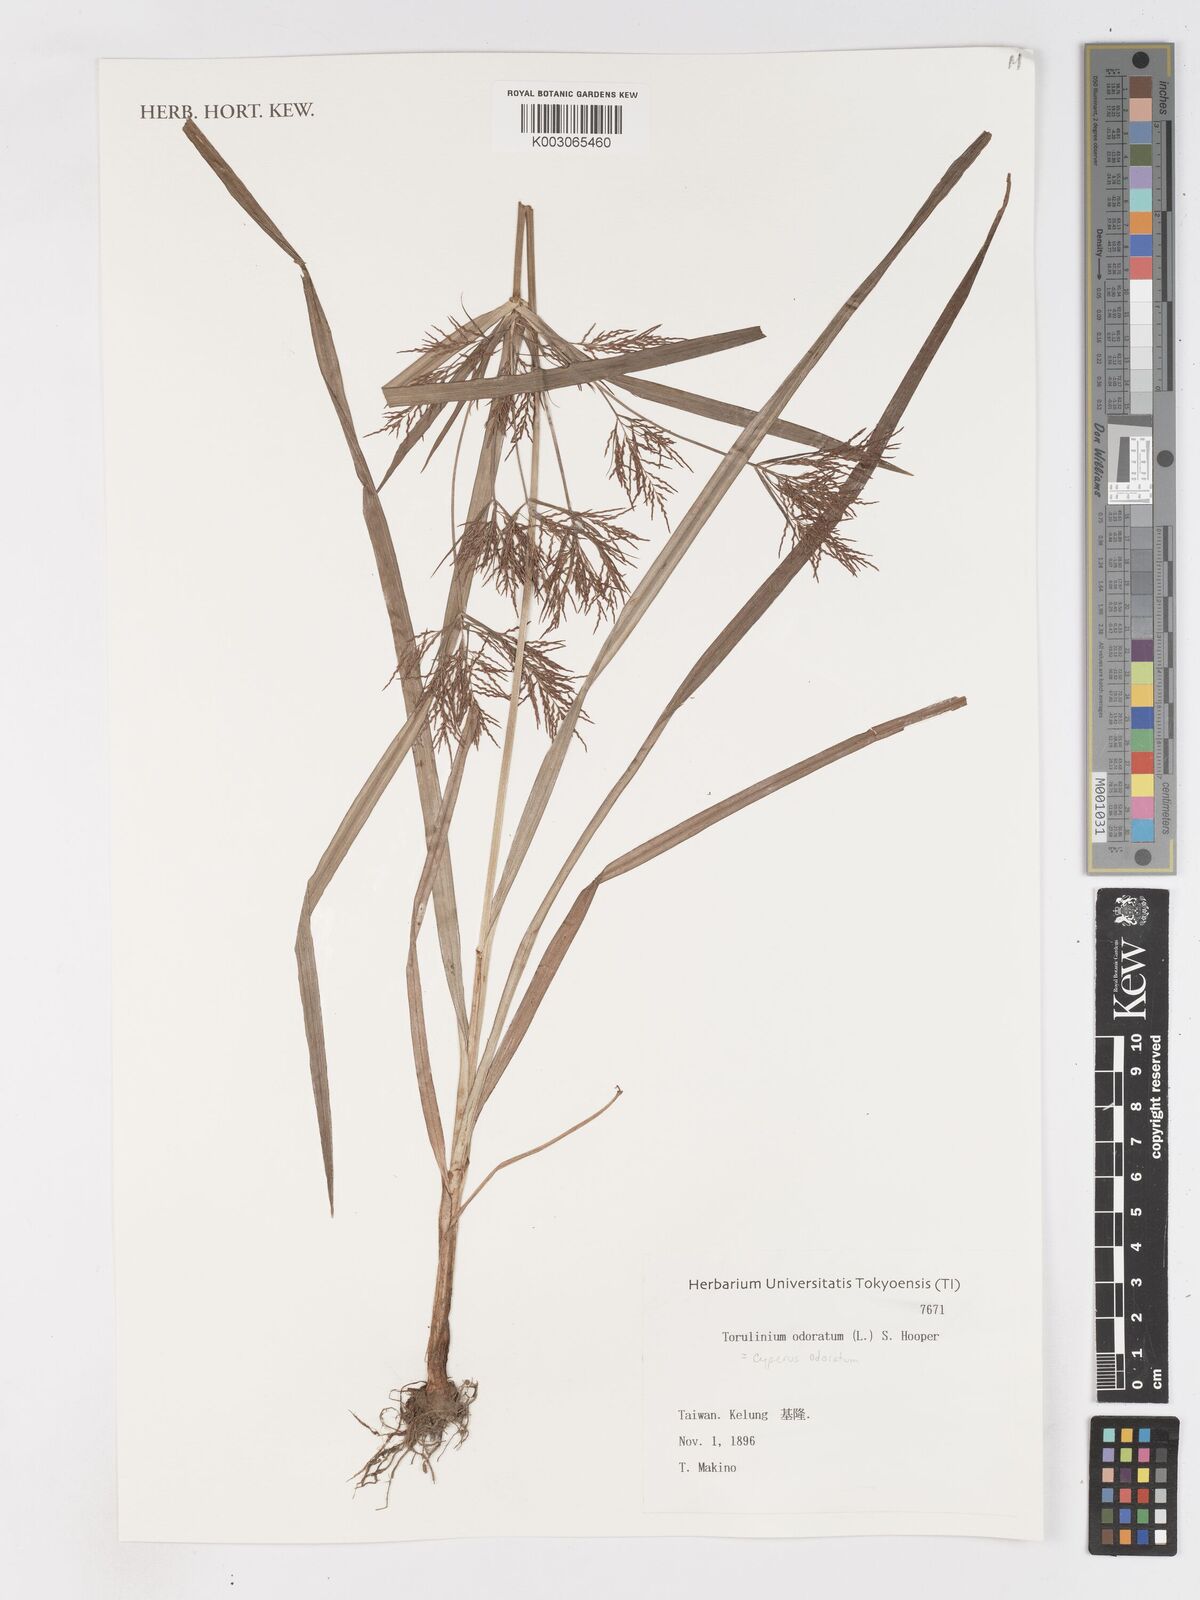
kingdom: Plantae
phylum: Tracheophyta
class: Liliopsida
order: Poales
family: Cyperaceae
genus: Cyperus
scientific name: Cyperus odoratus
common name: Fragrant flatsedge
